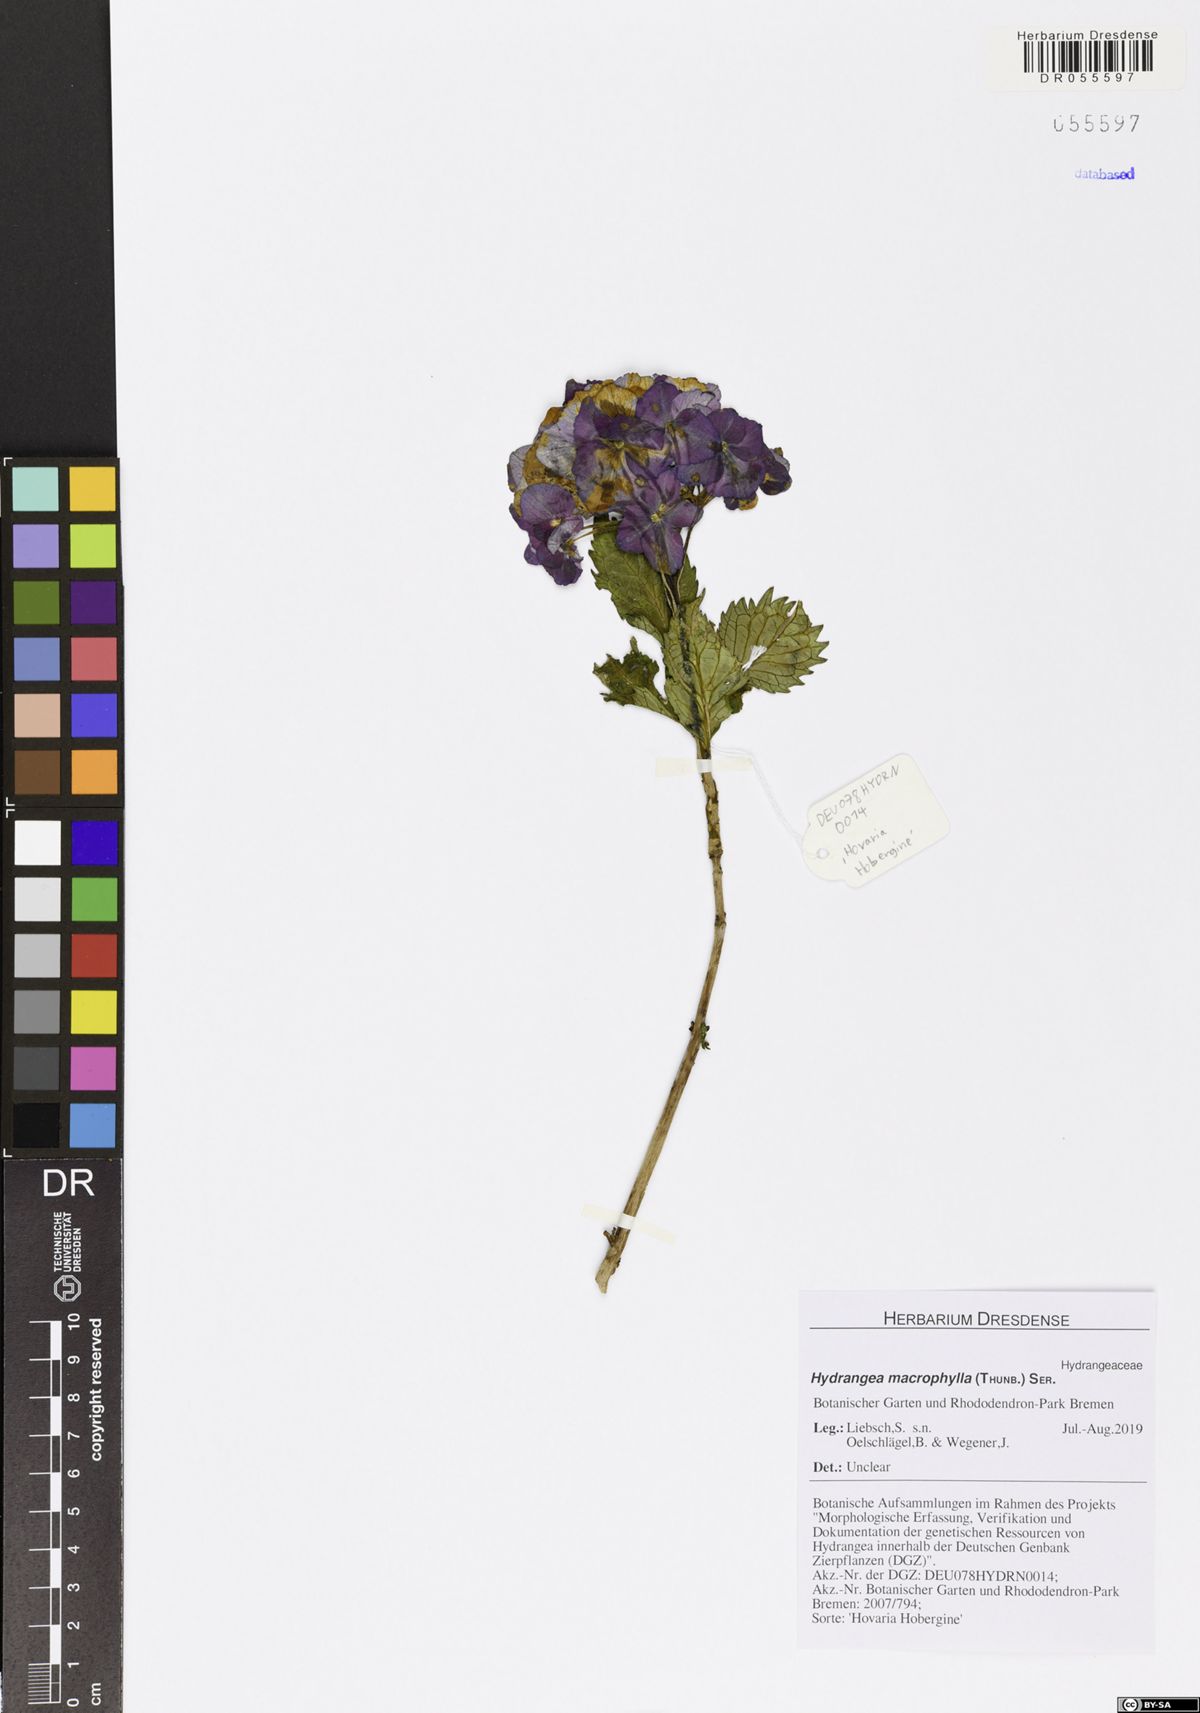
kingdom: Plantae
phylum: Tracheophyta
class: Magnoliopsida
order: Cornales
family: Hydrangeaceae
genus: Hydrangea
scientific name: Hydrangea macrophylla
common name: Hydrangea
